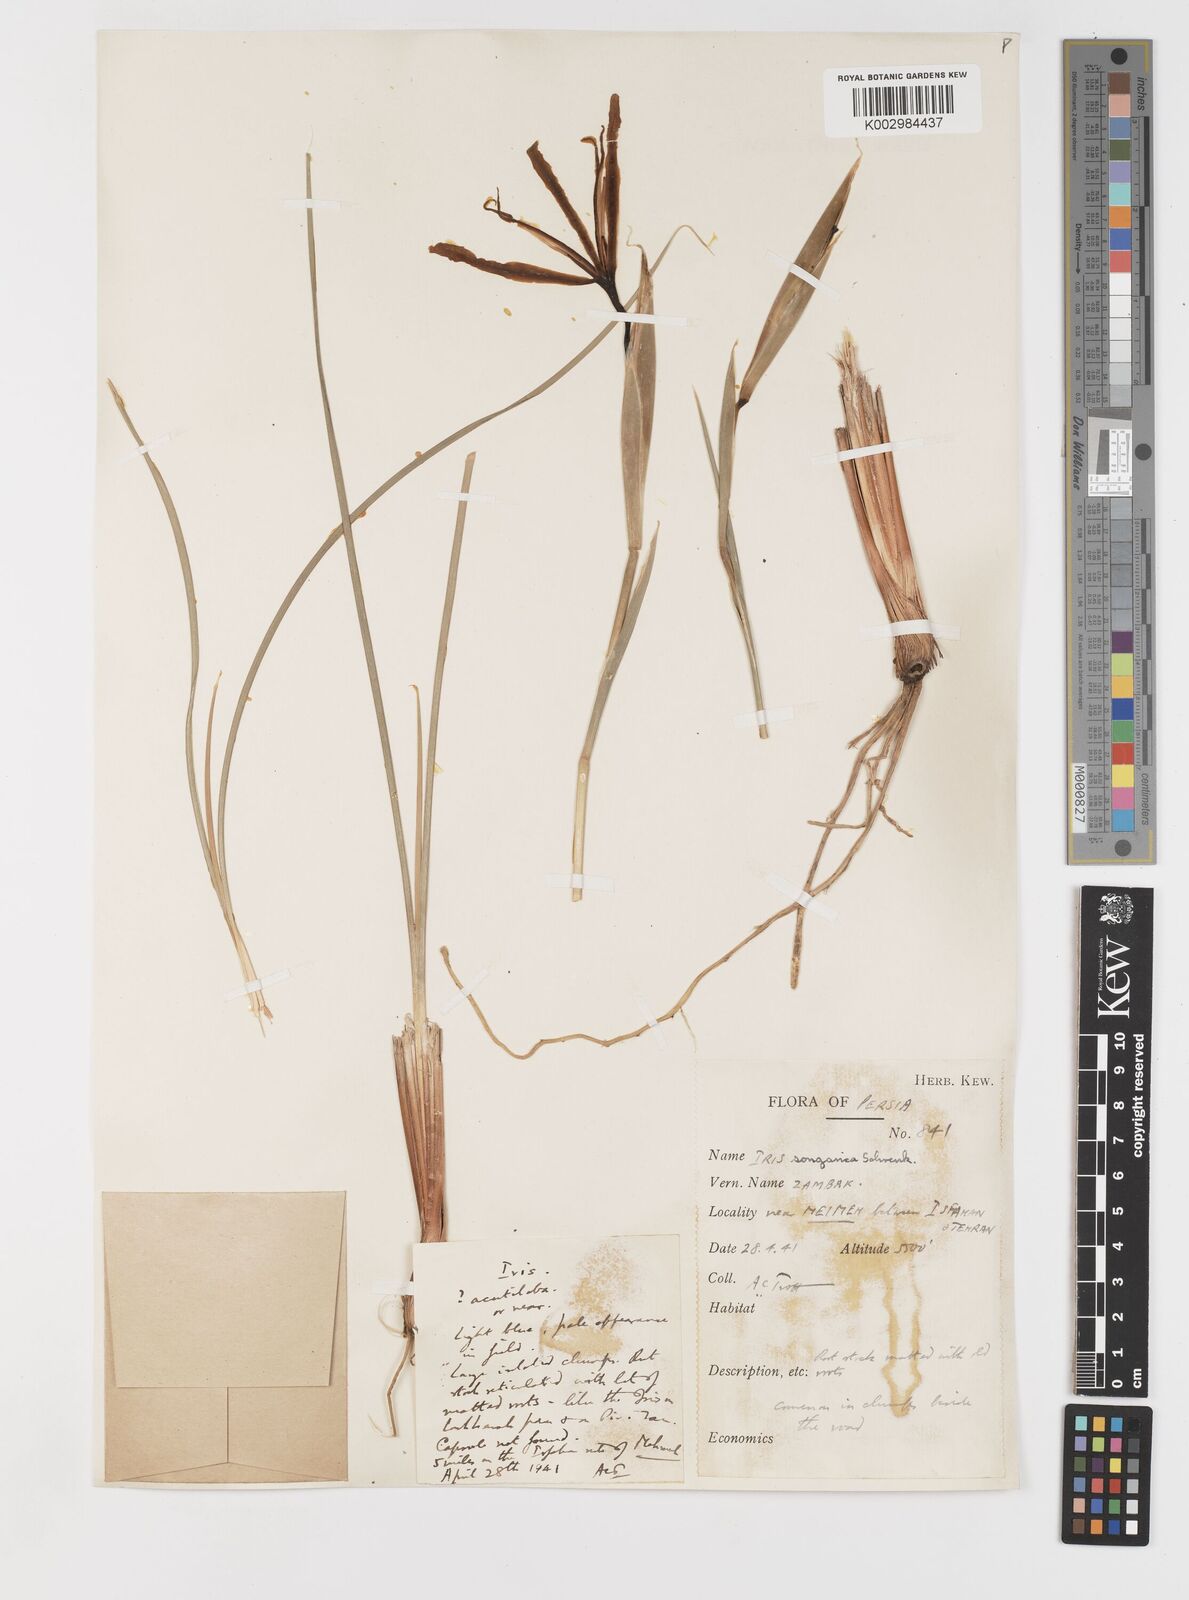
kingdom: Plantae
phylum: Tracheophyta
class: Liliopsida
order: Asparagales
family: Iridaceae
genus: Iris
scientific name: Iris songarica
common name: Songar iris
